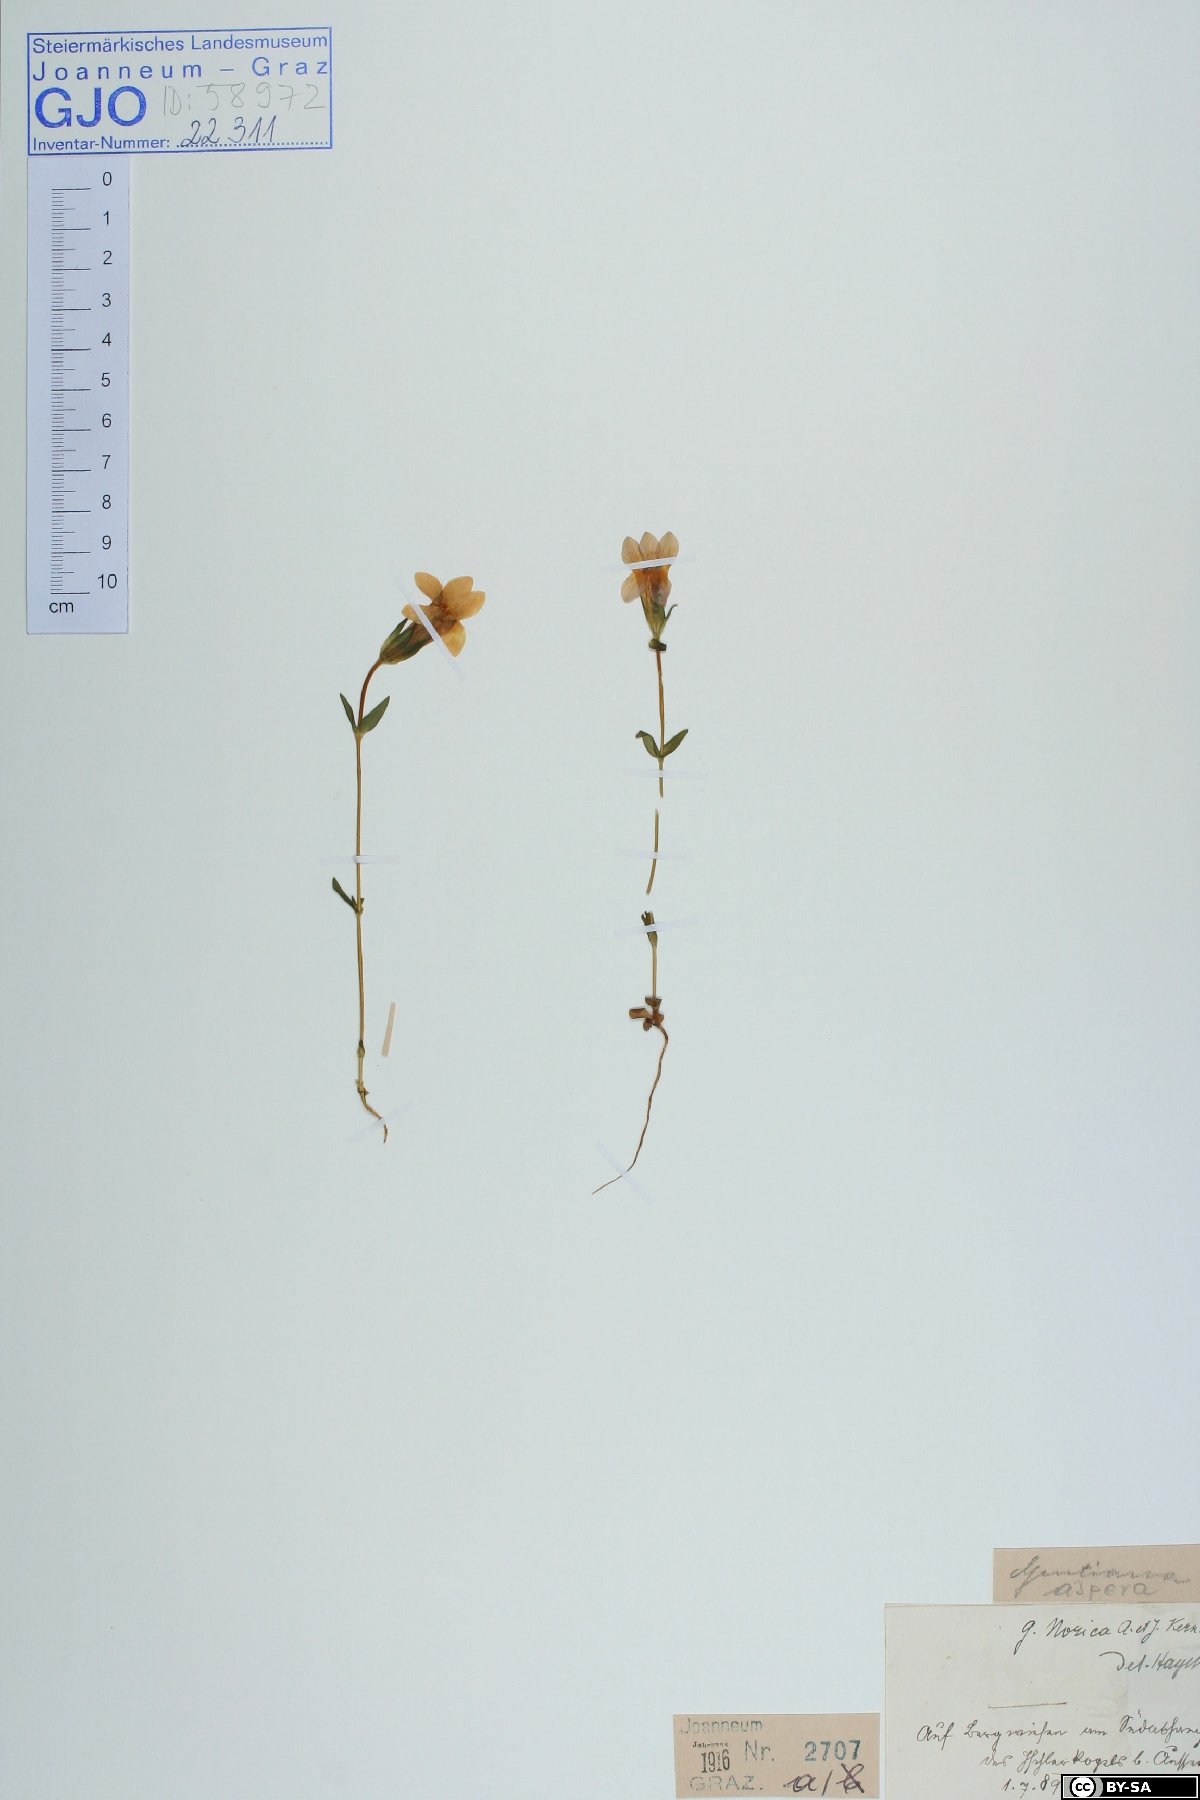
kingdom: Plantae
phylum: Tracheophyta
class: Magnoliopsida
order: Gentianales
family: Gentianaceae
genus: Gentianella
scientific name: Gentianella obtusifolia
